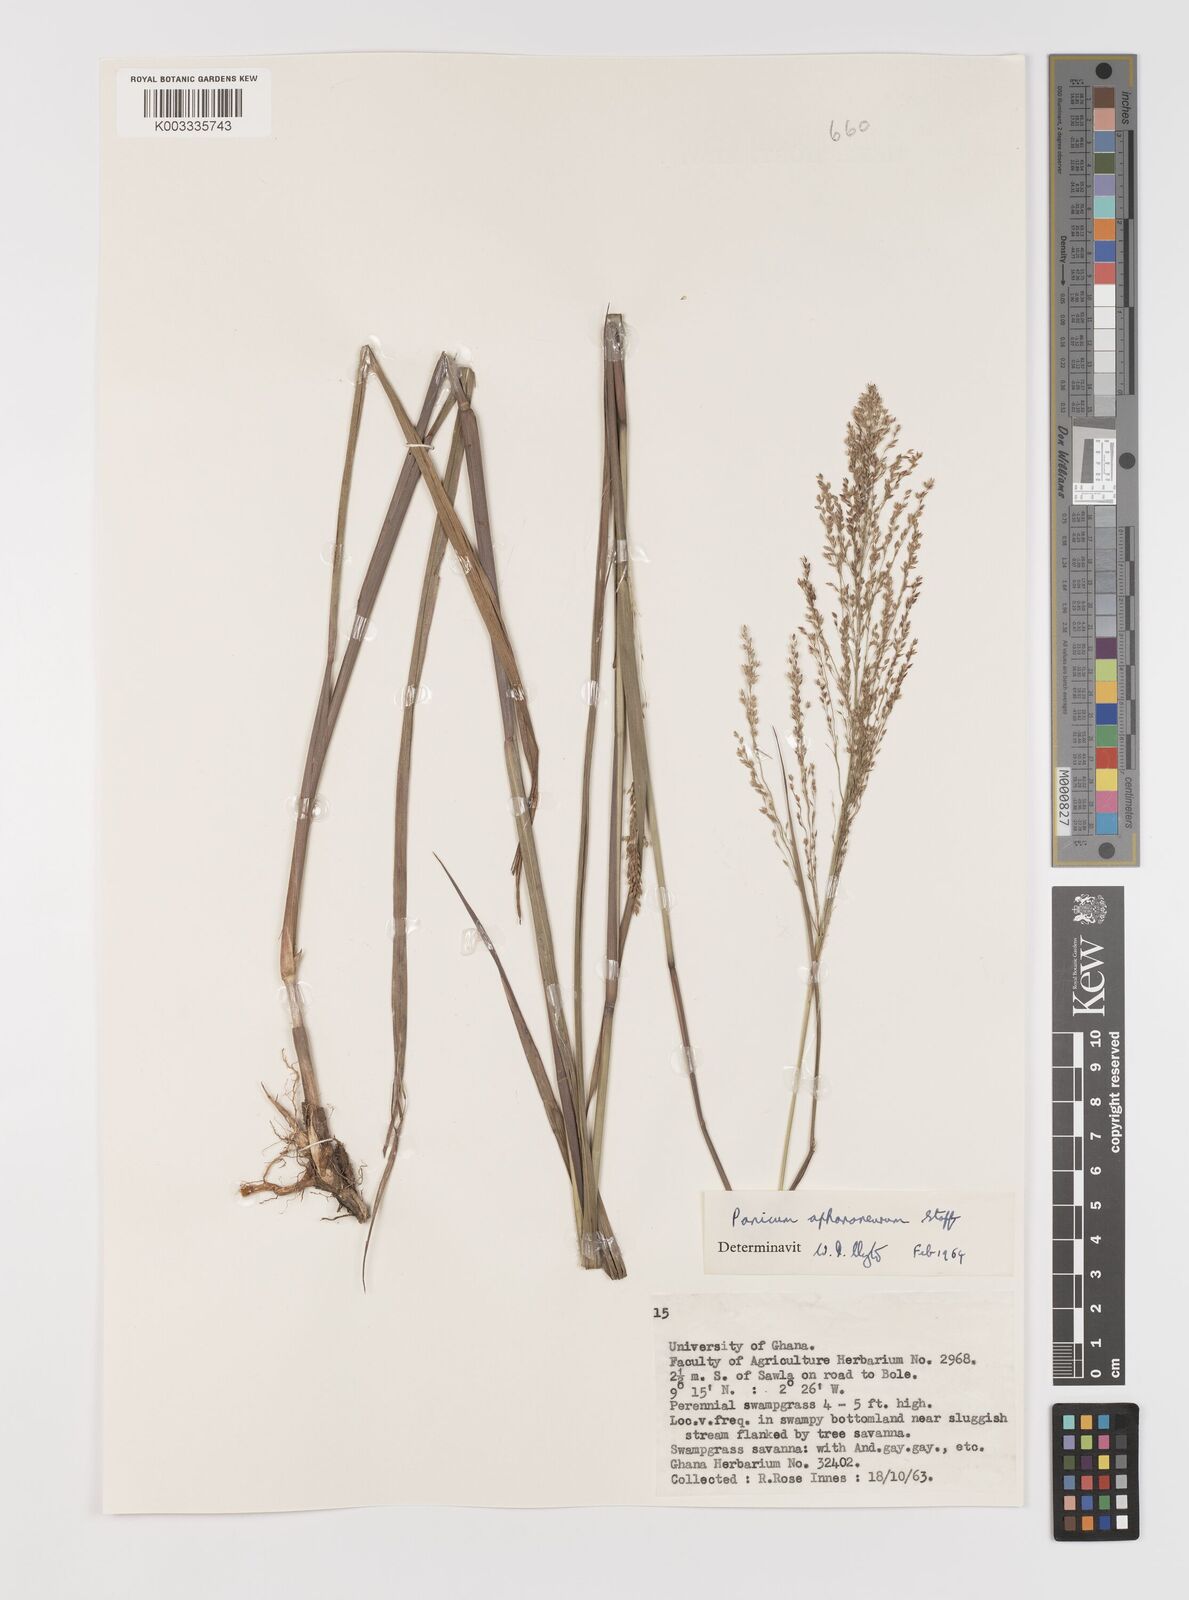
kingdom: Plantae
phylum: Tracheophyta
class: Liliopsida
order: Poales
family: Poaceae
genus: Panicum
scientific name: Panicum fluviicola
